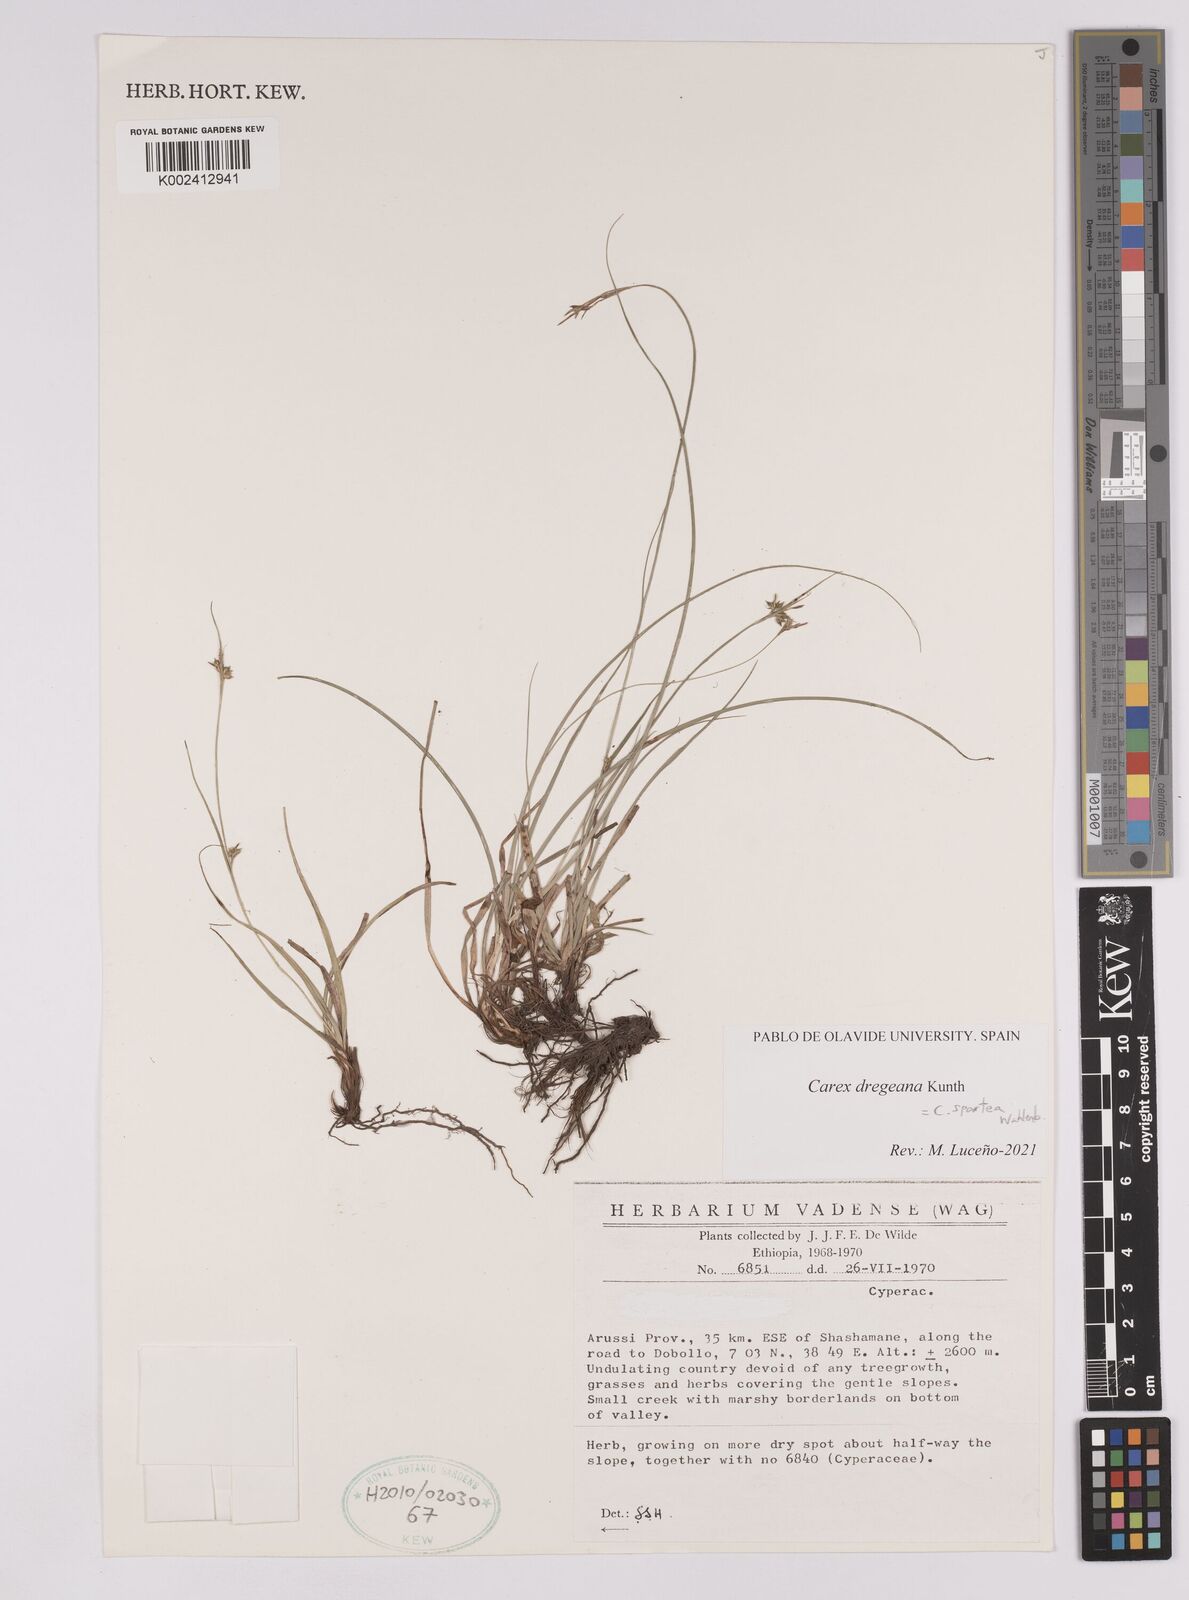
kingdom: Plantae
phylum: Tracheophyta
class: Liliopsida
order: Poales
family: Cyperaceae
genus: Carex
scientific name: Carex spartea
